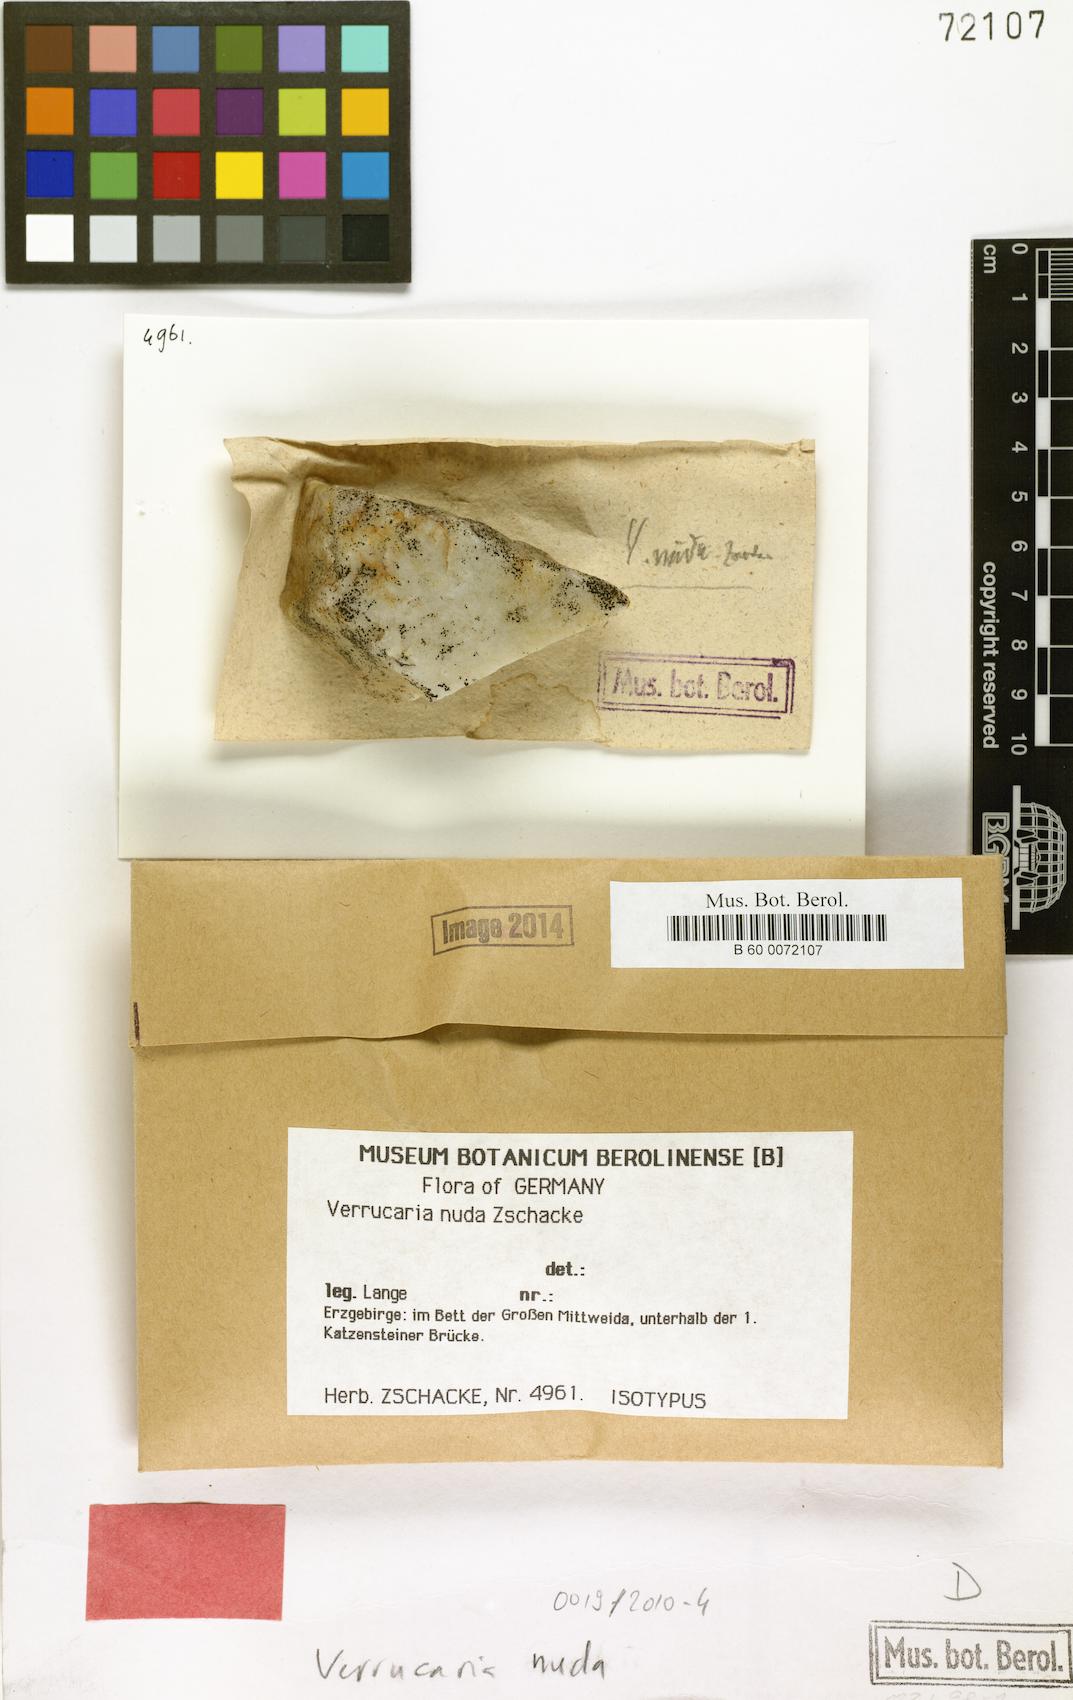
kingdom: Fungi
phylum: Ascomycota
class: Eurotiomycetes
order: Verrucariales
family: Verrucariaceae
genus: Verrucaria
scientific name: Verrucaria nuda
